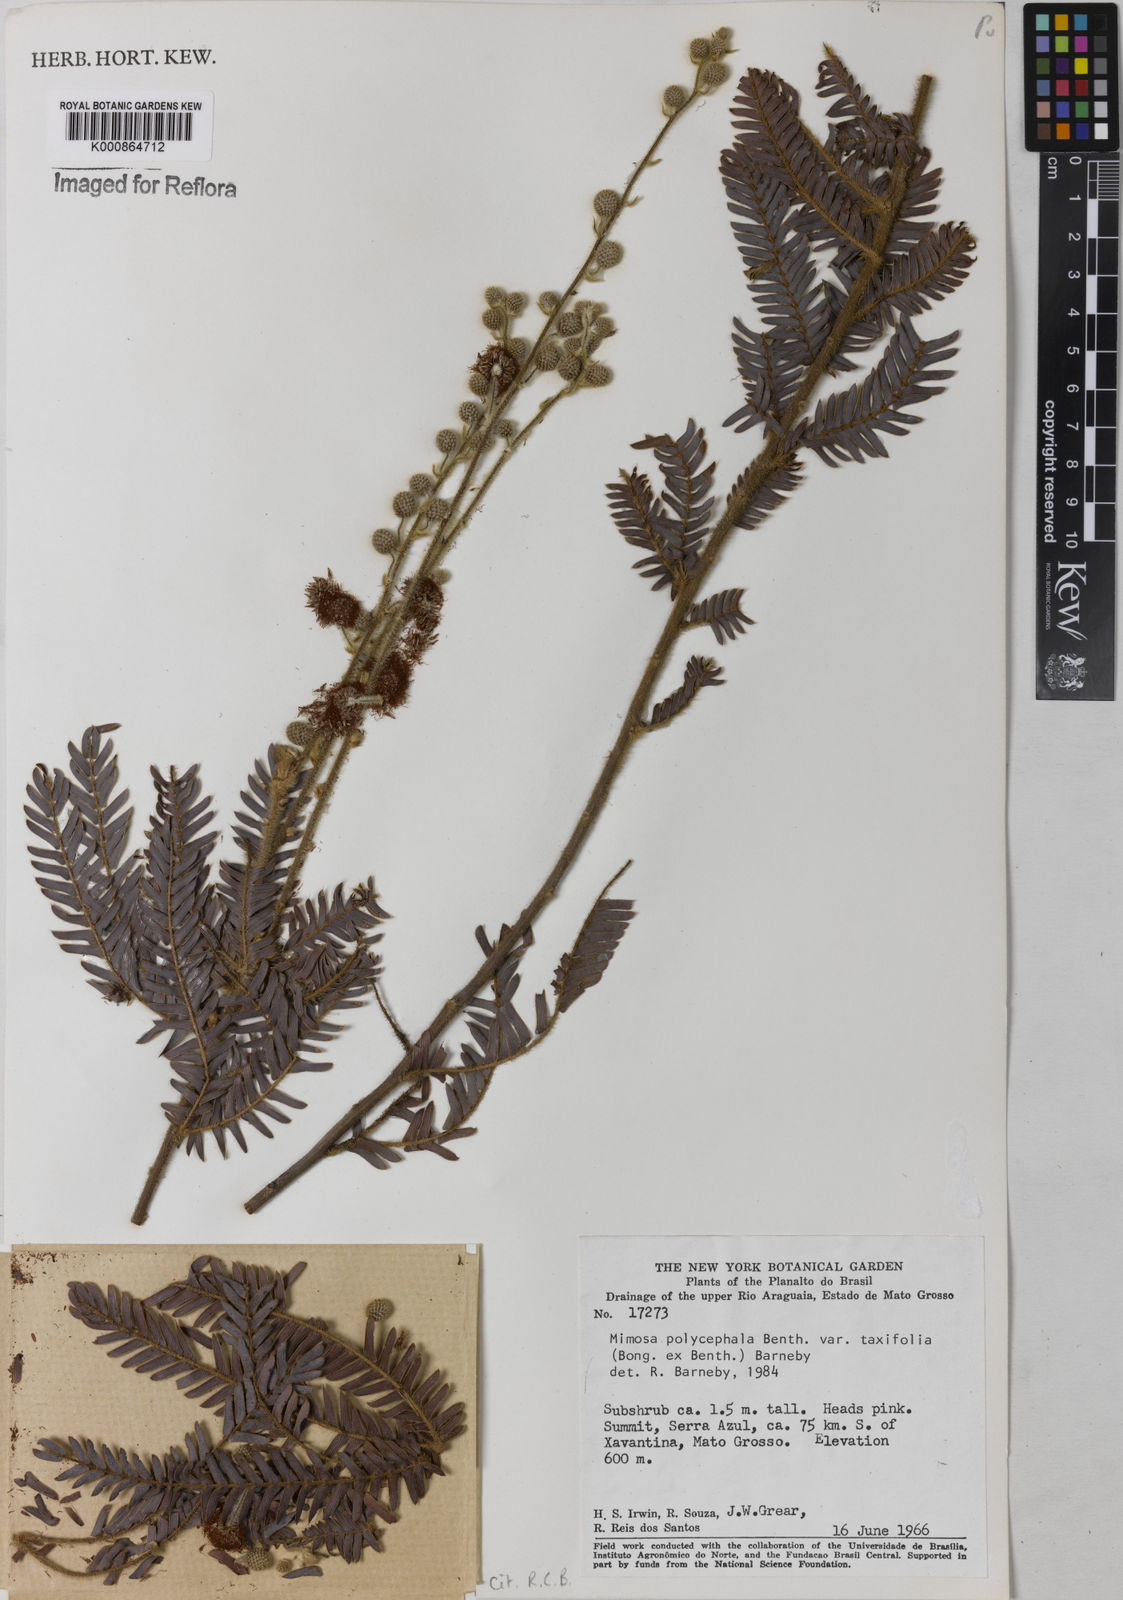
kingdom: Plantae
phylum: Tracheophyta
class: Magnoliopsida
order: Fabales
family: Fabaceae
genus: Mimosa
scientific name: Mimosa polycephala
